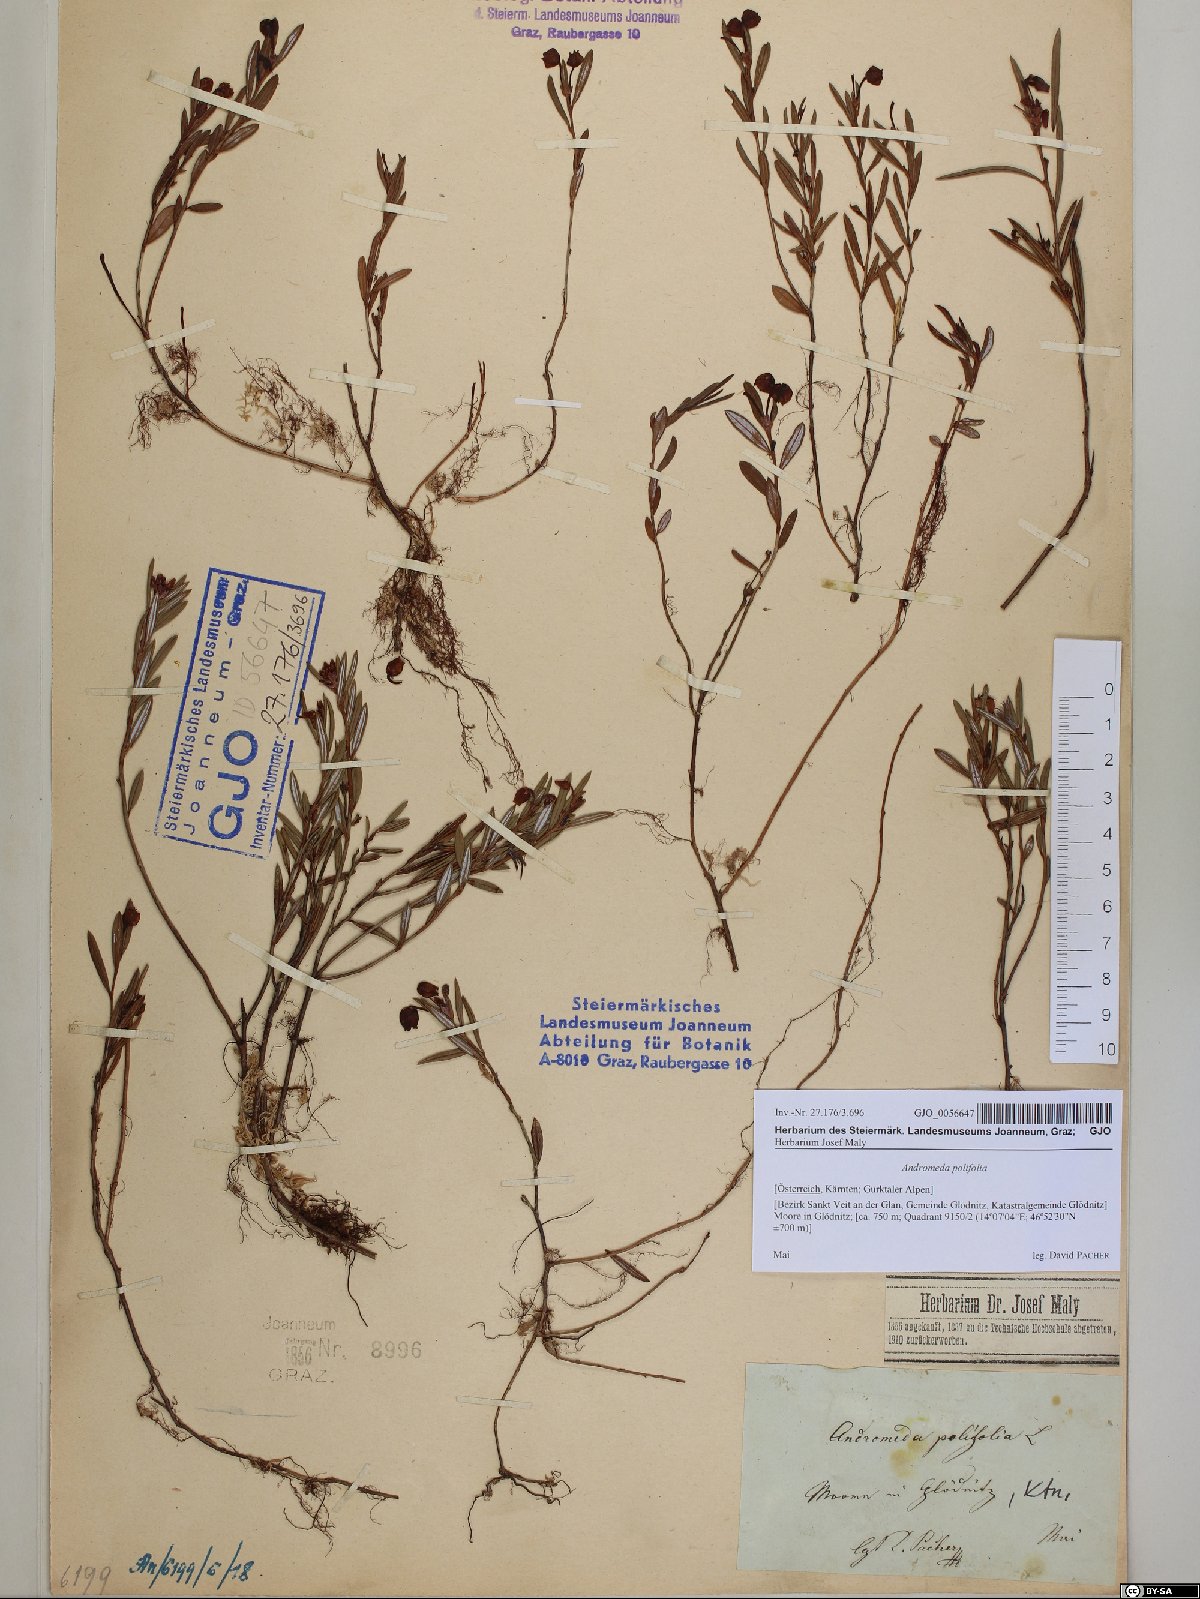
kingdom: Plantae
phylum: Tracheophyta
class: Magnoliopsida
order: Ericales
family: Ericaceae
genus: Andromeda
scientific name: Andromeda polifolia
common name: Bog-rosemary
